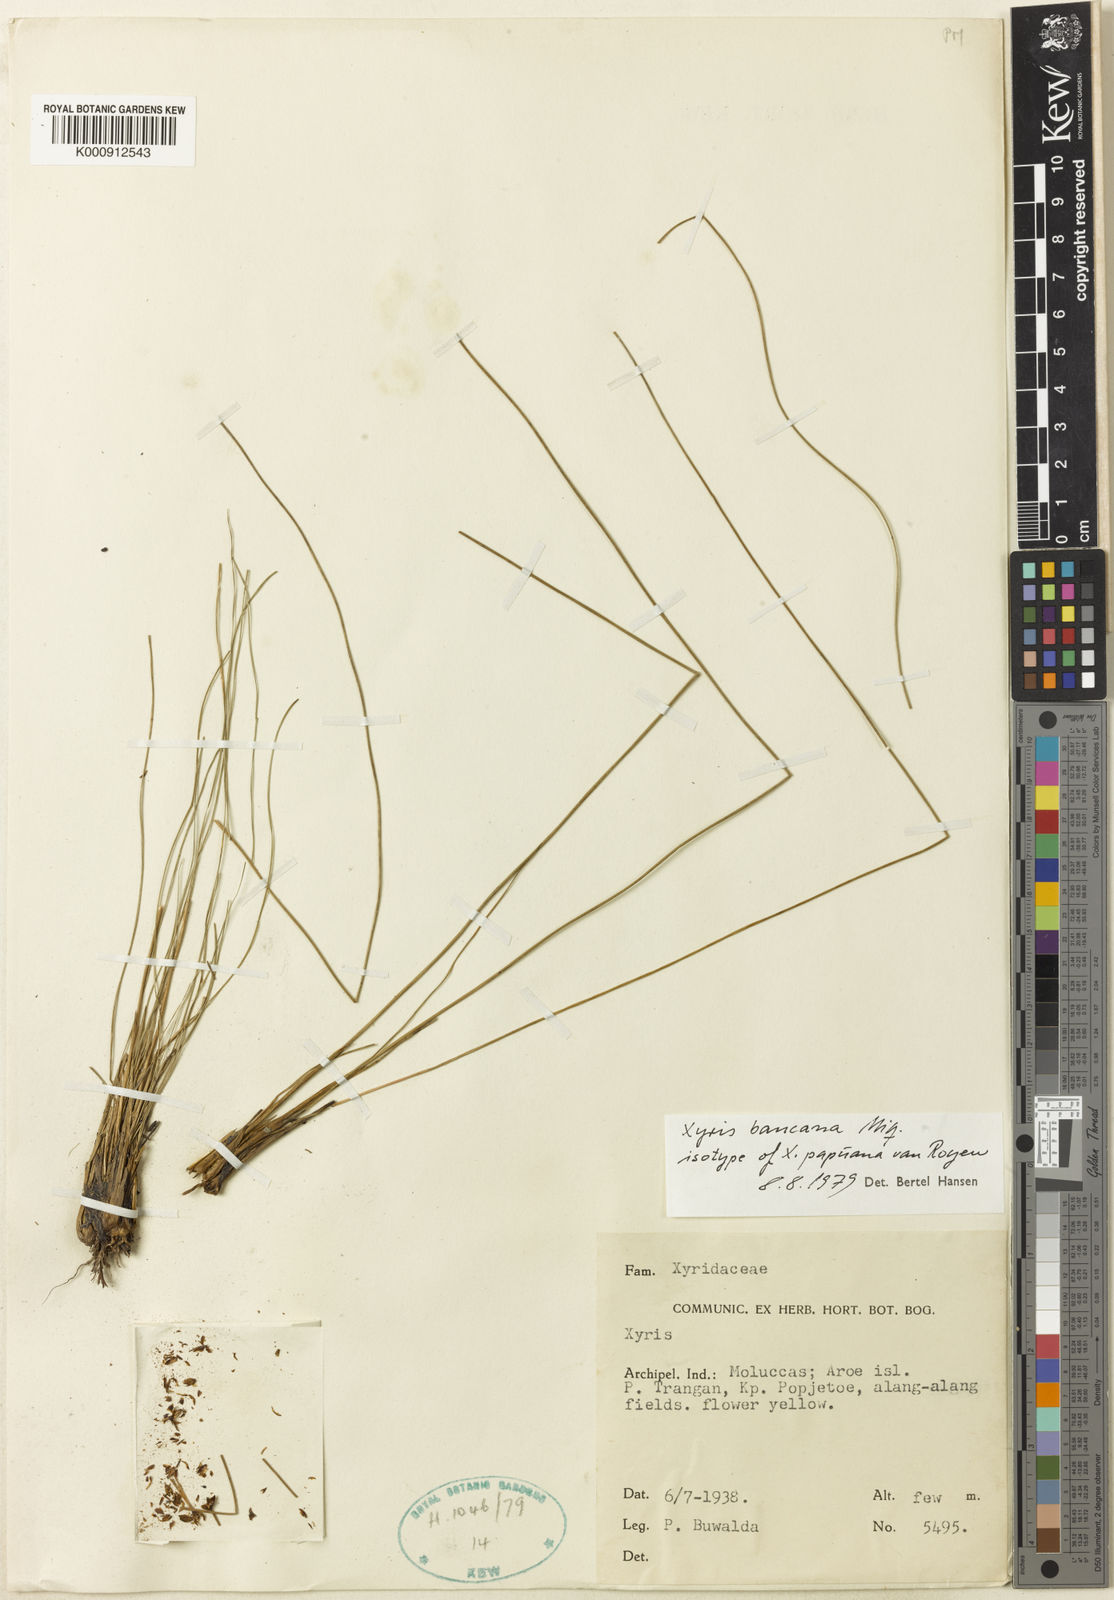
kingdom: Plantae
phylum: Tracheophyta
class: Liliopsida
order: Poales
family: Xyridaceae
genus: Xyris
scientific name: Xyris bancana
